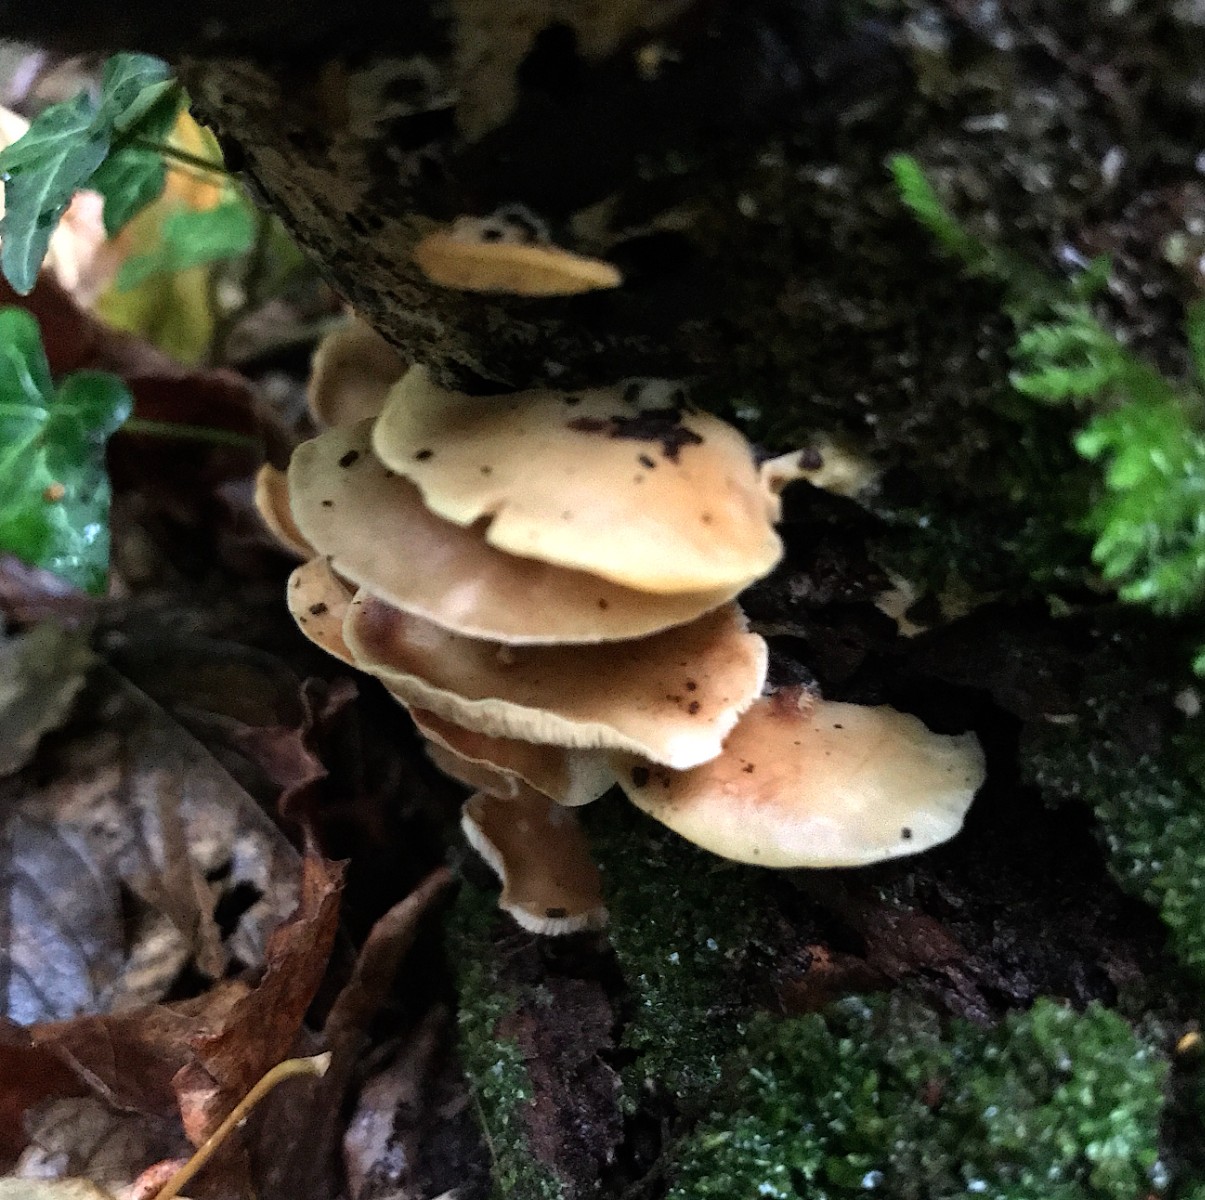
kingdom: Fungi
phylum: Basidiomycota
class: Agaricomycetes
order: Agaricales
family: Crepidotaceae
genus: Crepidotus
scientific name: Crepidotus
